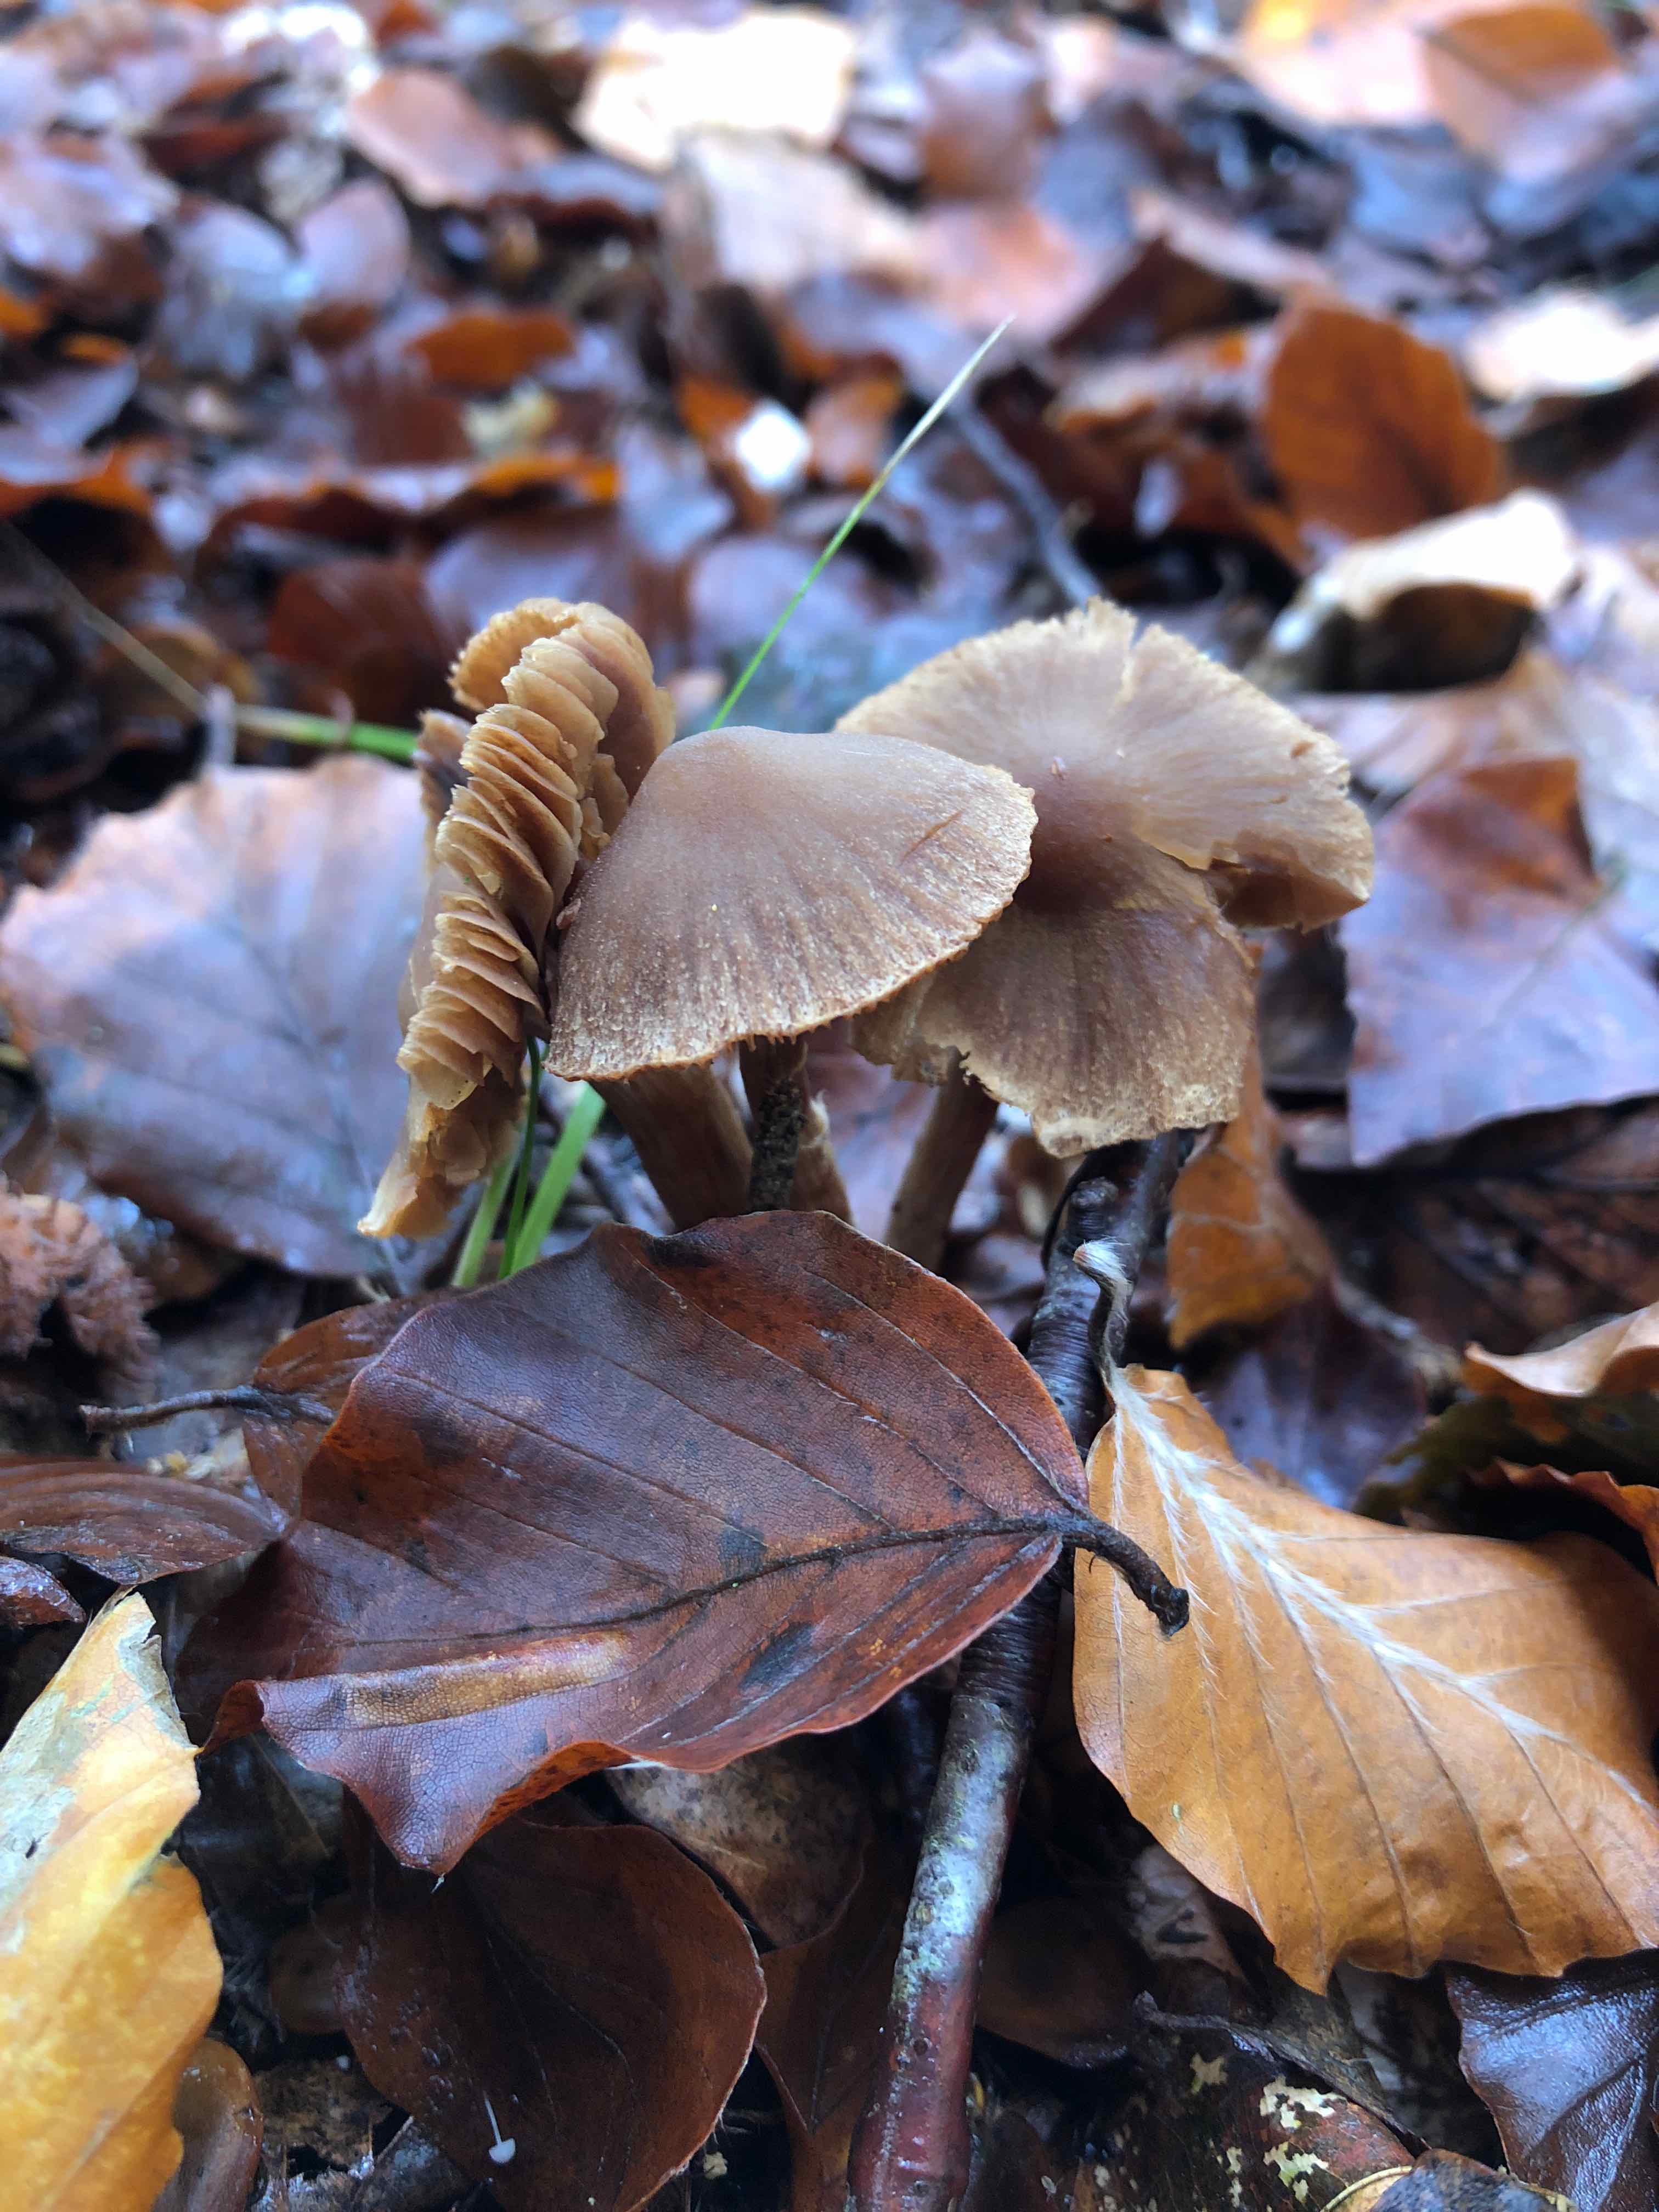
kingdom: Fungi
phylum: Basidiomycota
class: Agaricomycetes
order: Agaricales
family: Cortinariaceae
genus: Cortinarius
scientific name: Cortinarius
